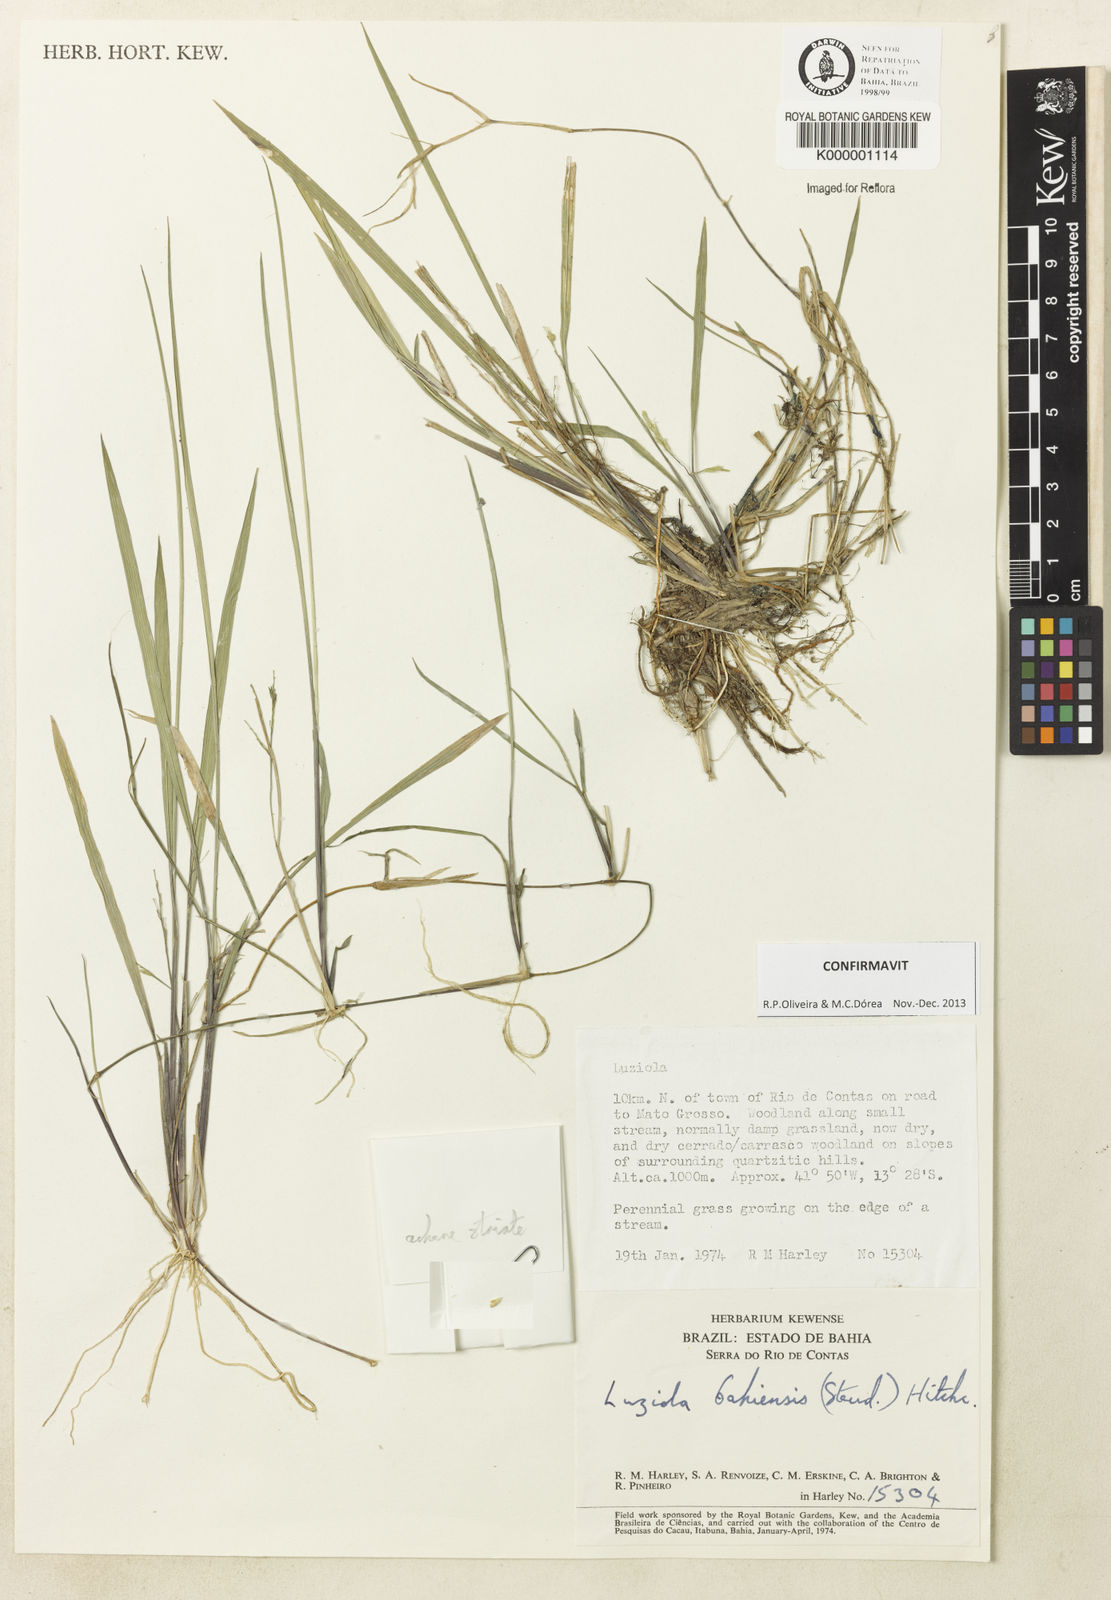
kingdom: Plantae
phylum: Tracheophyta
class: Liliopsida
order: Poales
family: Poaceae
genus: Luziola
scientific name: Luziola bahiensis
